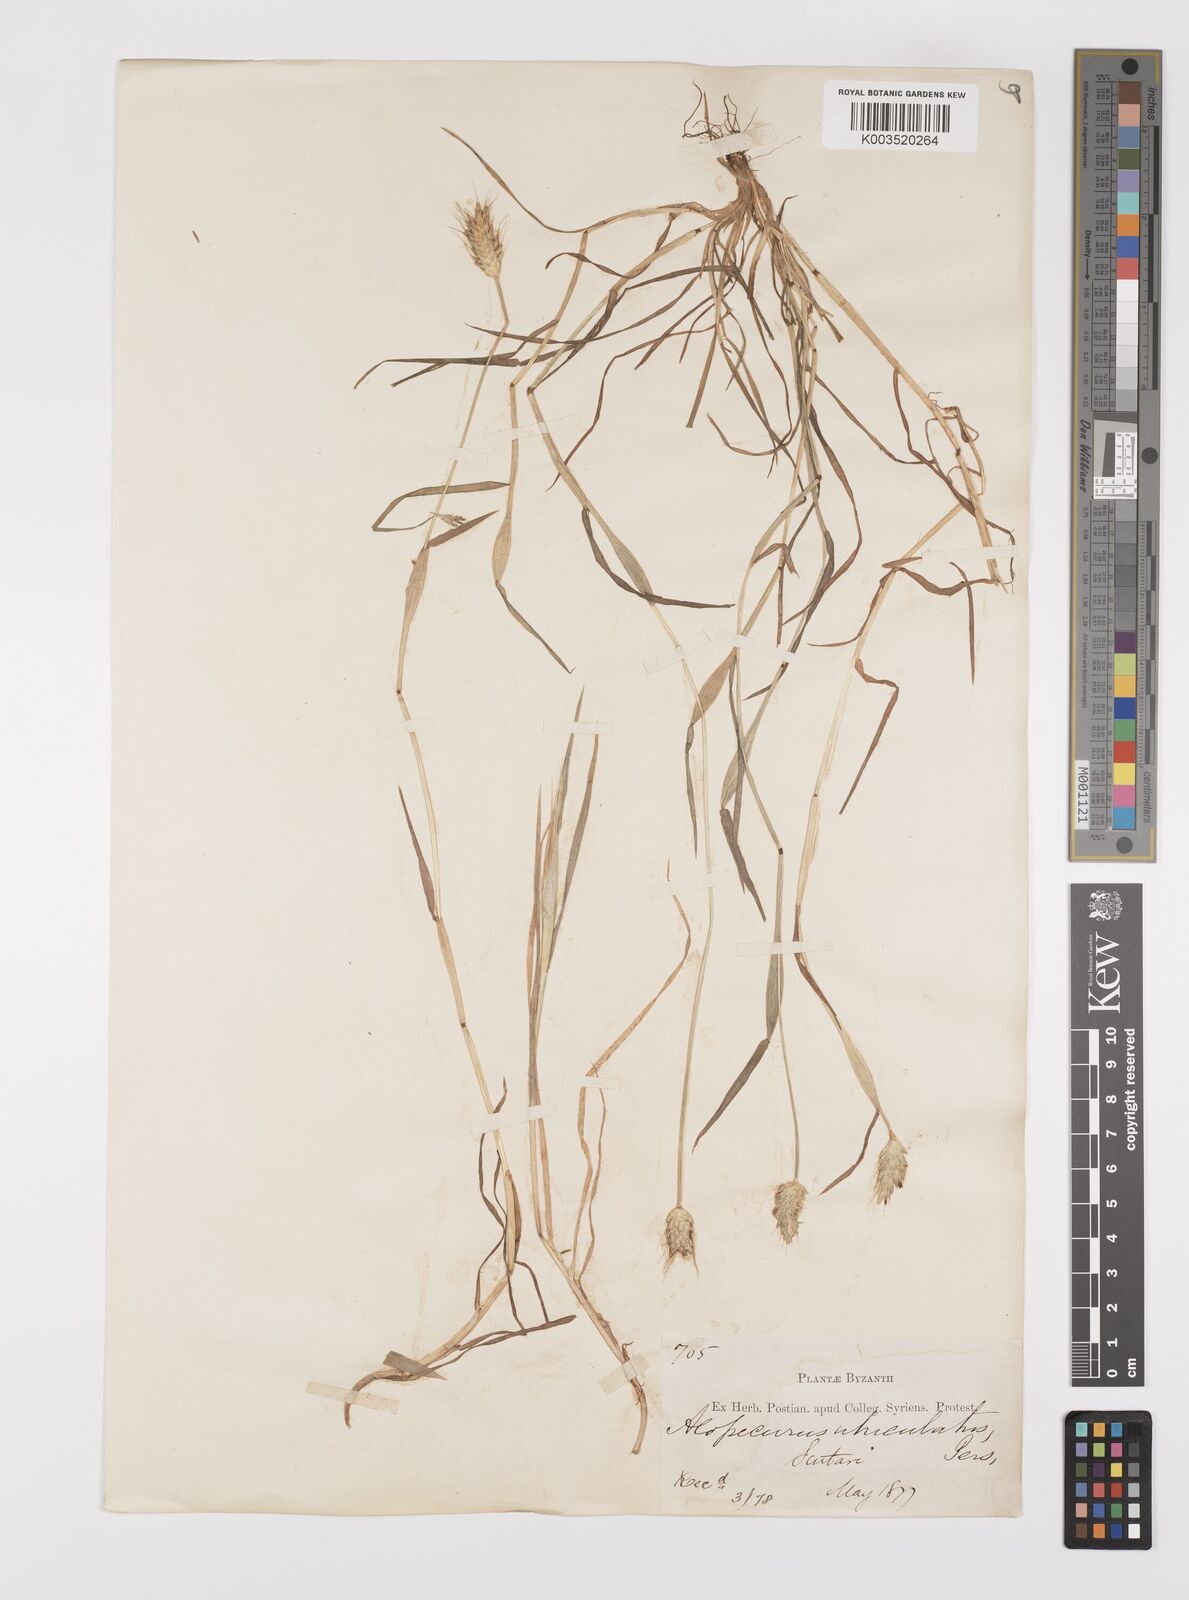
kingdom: Plantae
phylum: Tracheophyta
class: Liliopsida
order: Poales
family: Poaceae
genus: Alopecurus
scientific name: Alopecurus rendlei
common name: Rendle's meadow foxtail
